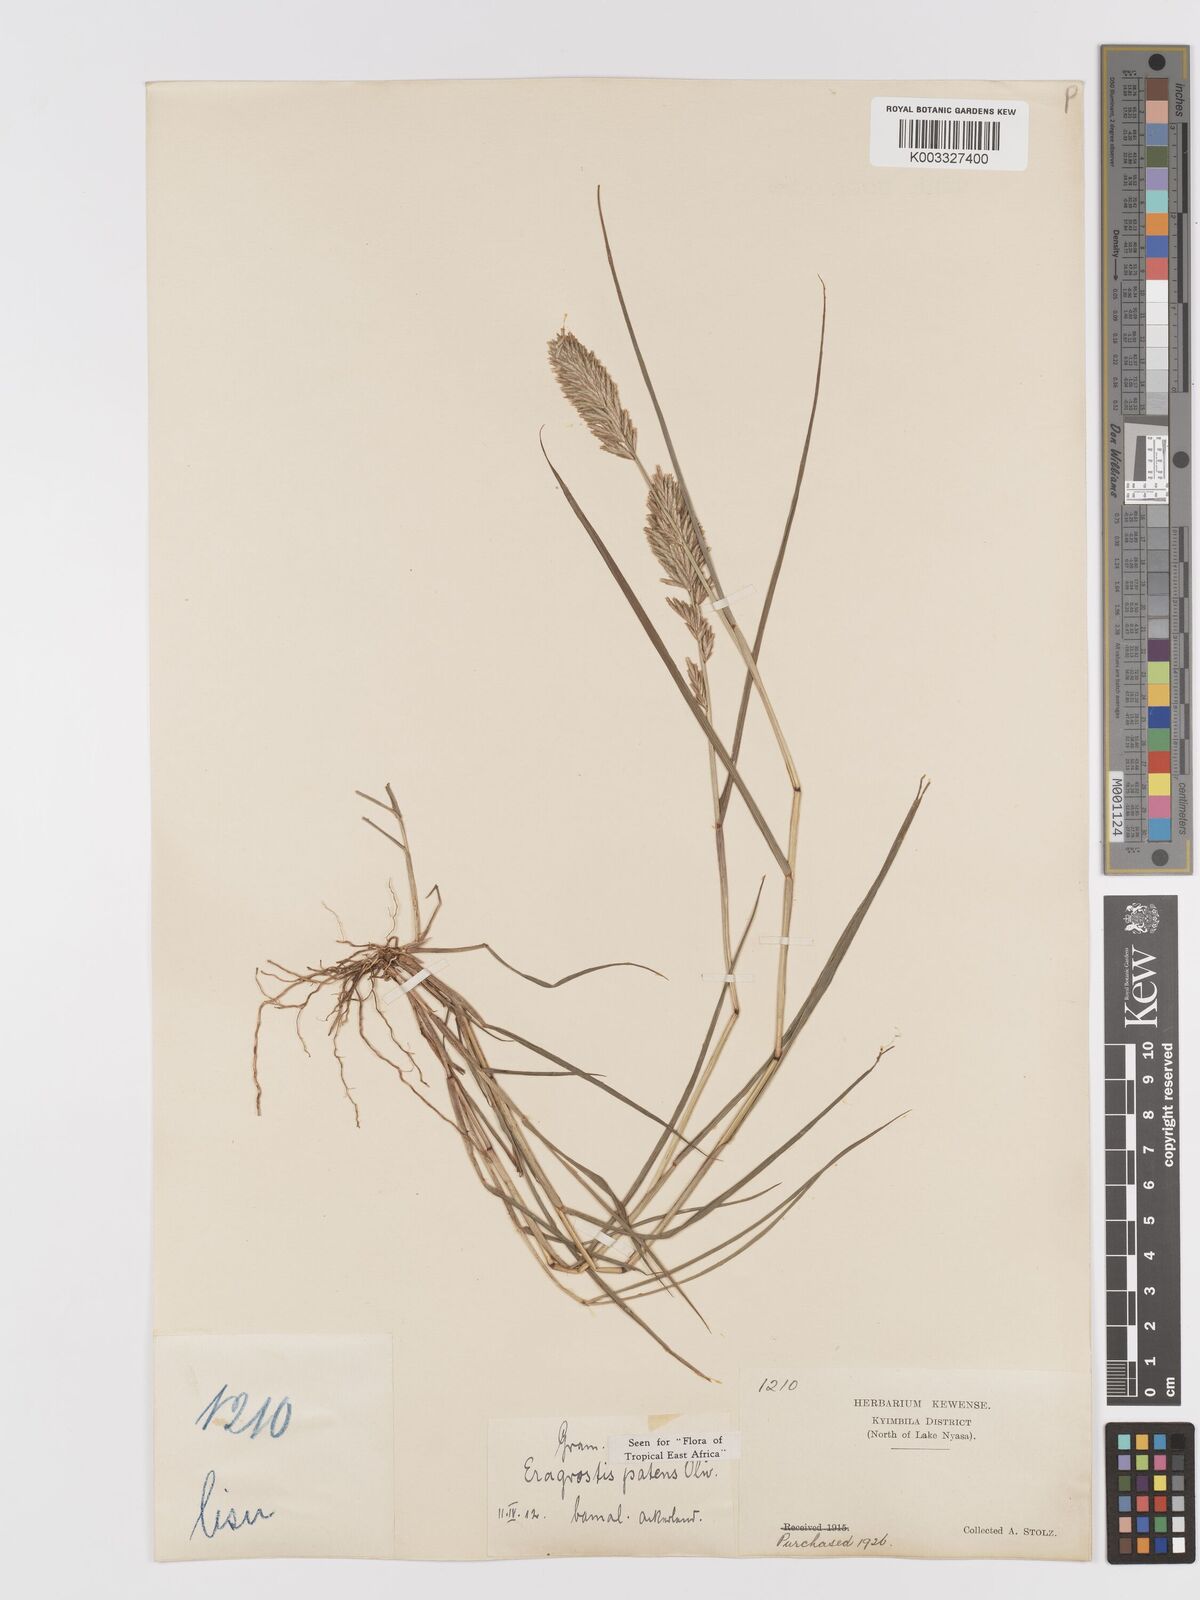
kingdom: Plantae
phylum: Tracheophyta
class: Liliopsida
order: Poales
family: Poaceae
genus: Eragrostis
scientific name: Eragrostis patens
